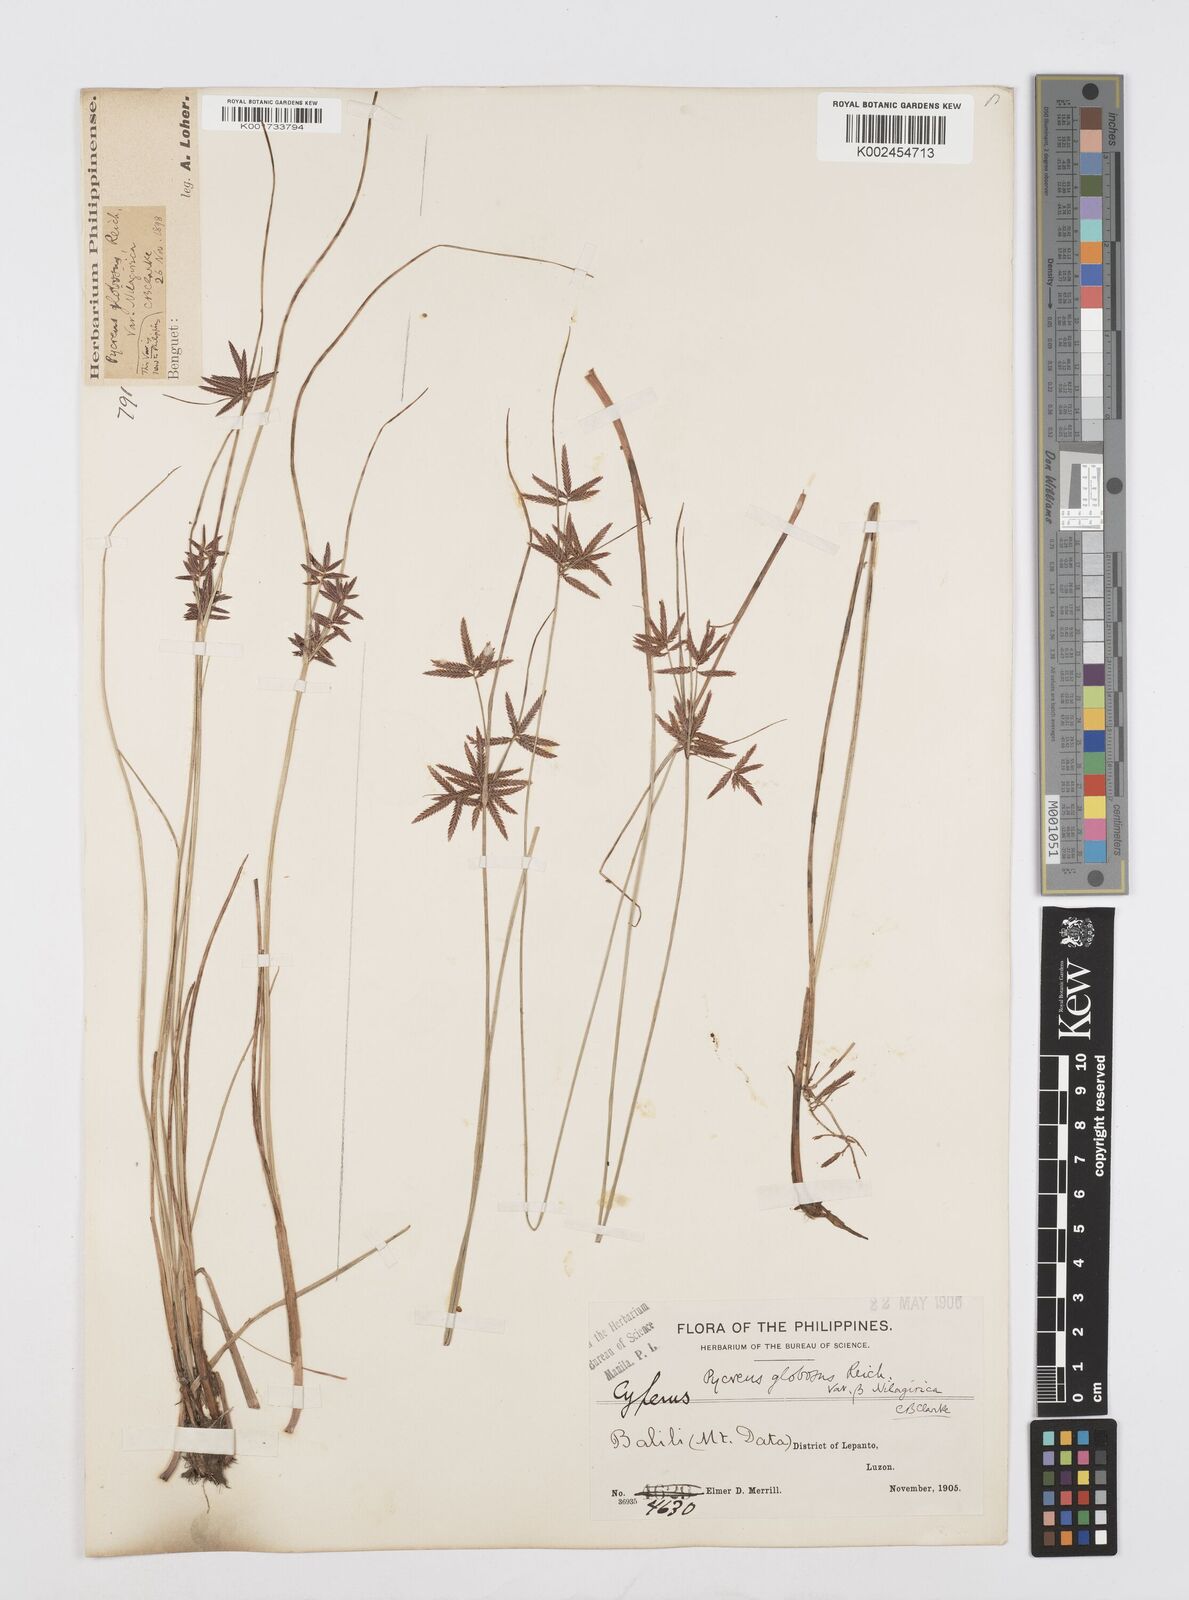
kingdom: Plantae
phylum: Tracheophyta
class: Liliopsida
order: Poales
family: Cyperaceae
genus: Cyperus
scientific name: Cyperus flavidus
